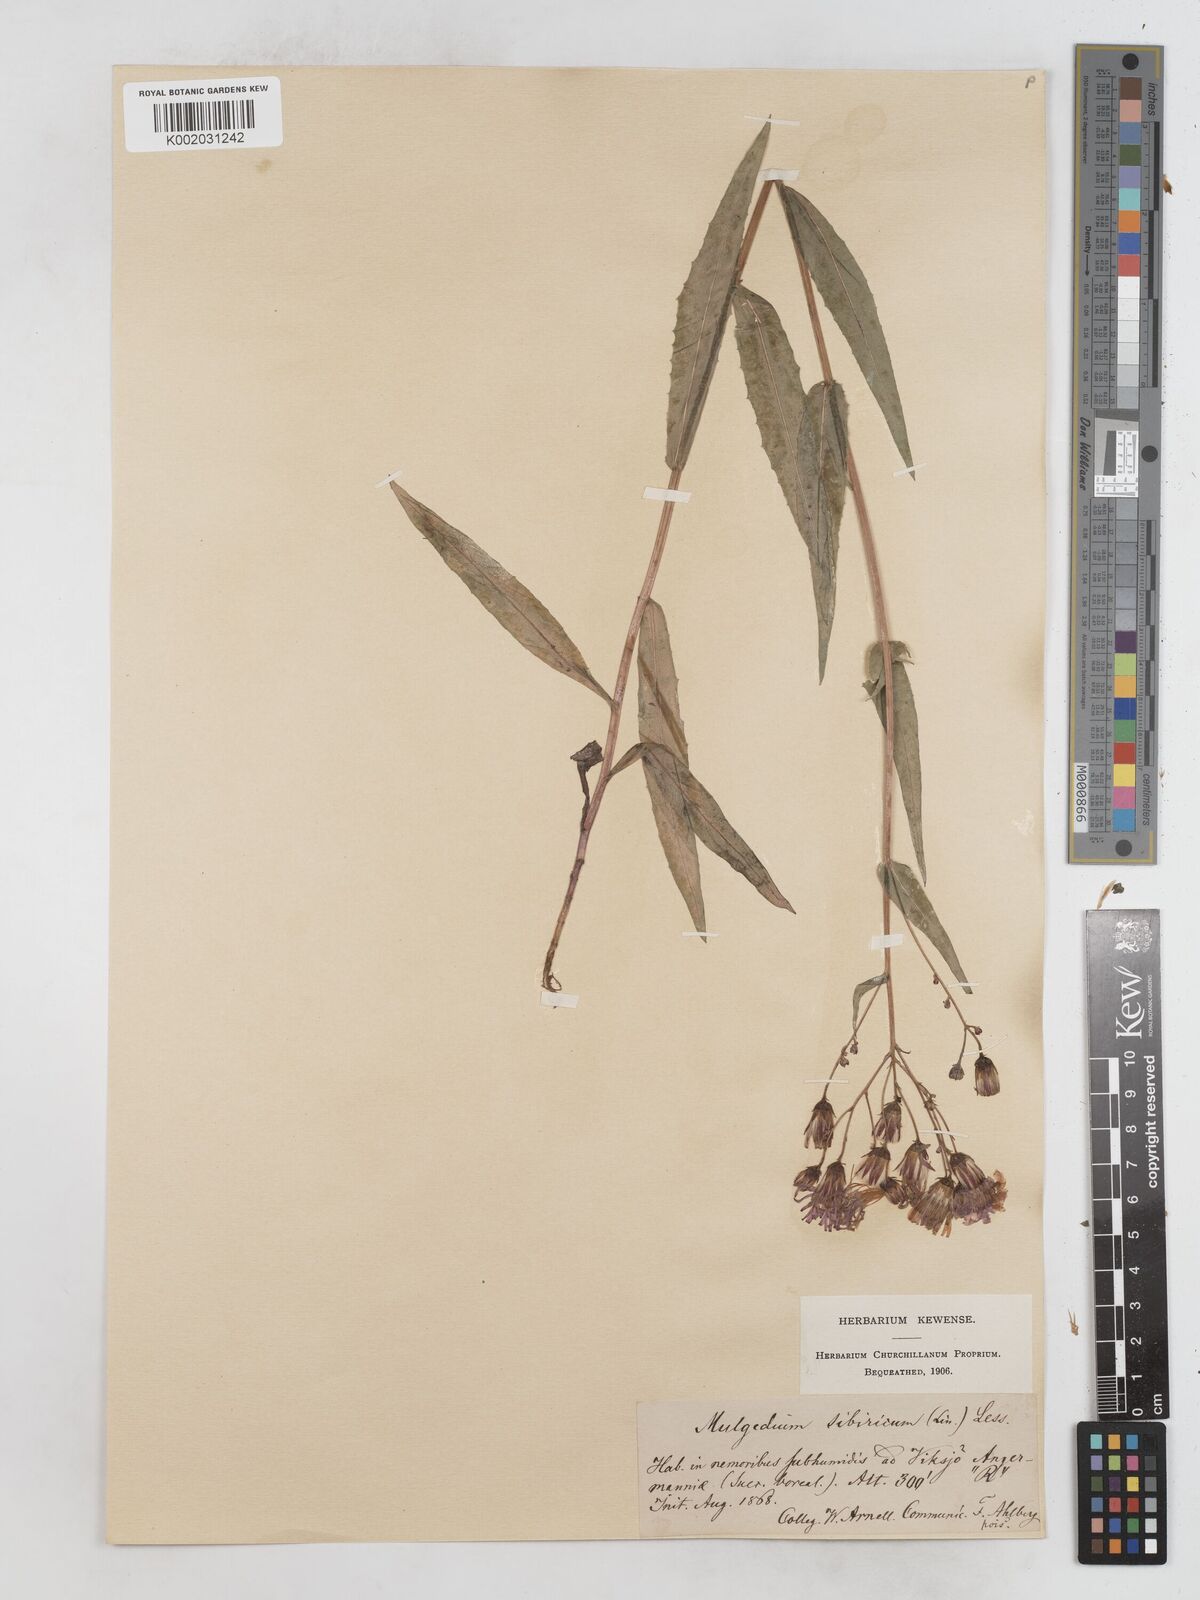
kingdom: Plantae
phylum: Tracheophyta
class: Magnoliopsida
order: Asterales
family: Asteraceae
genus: Lactuca
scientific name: Lactuca sibirica
